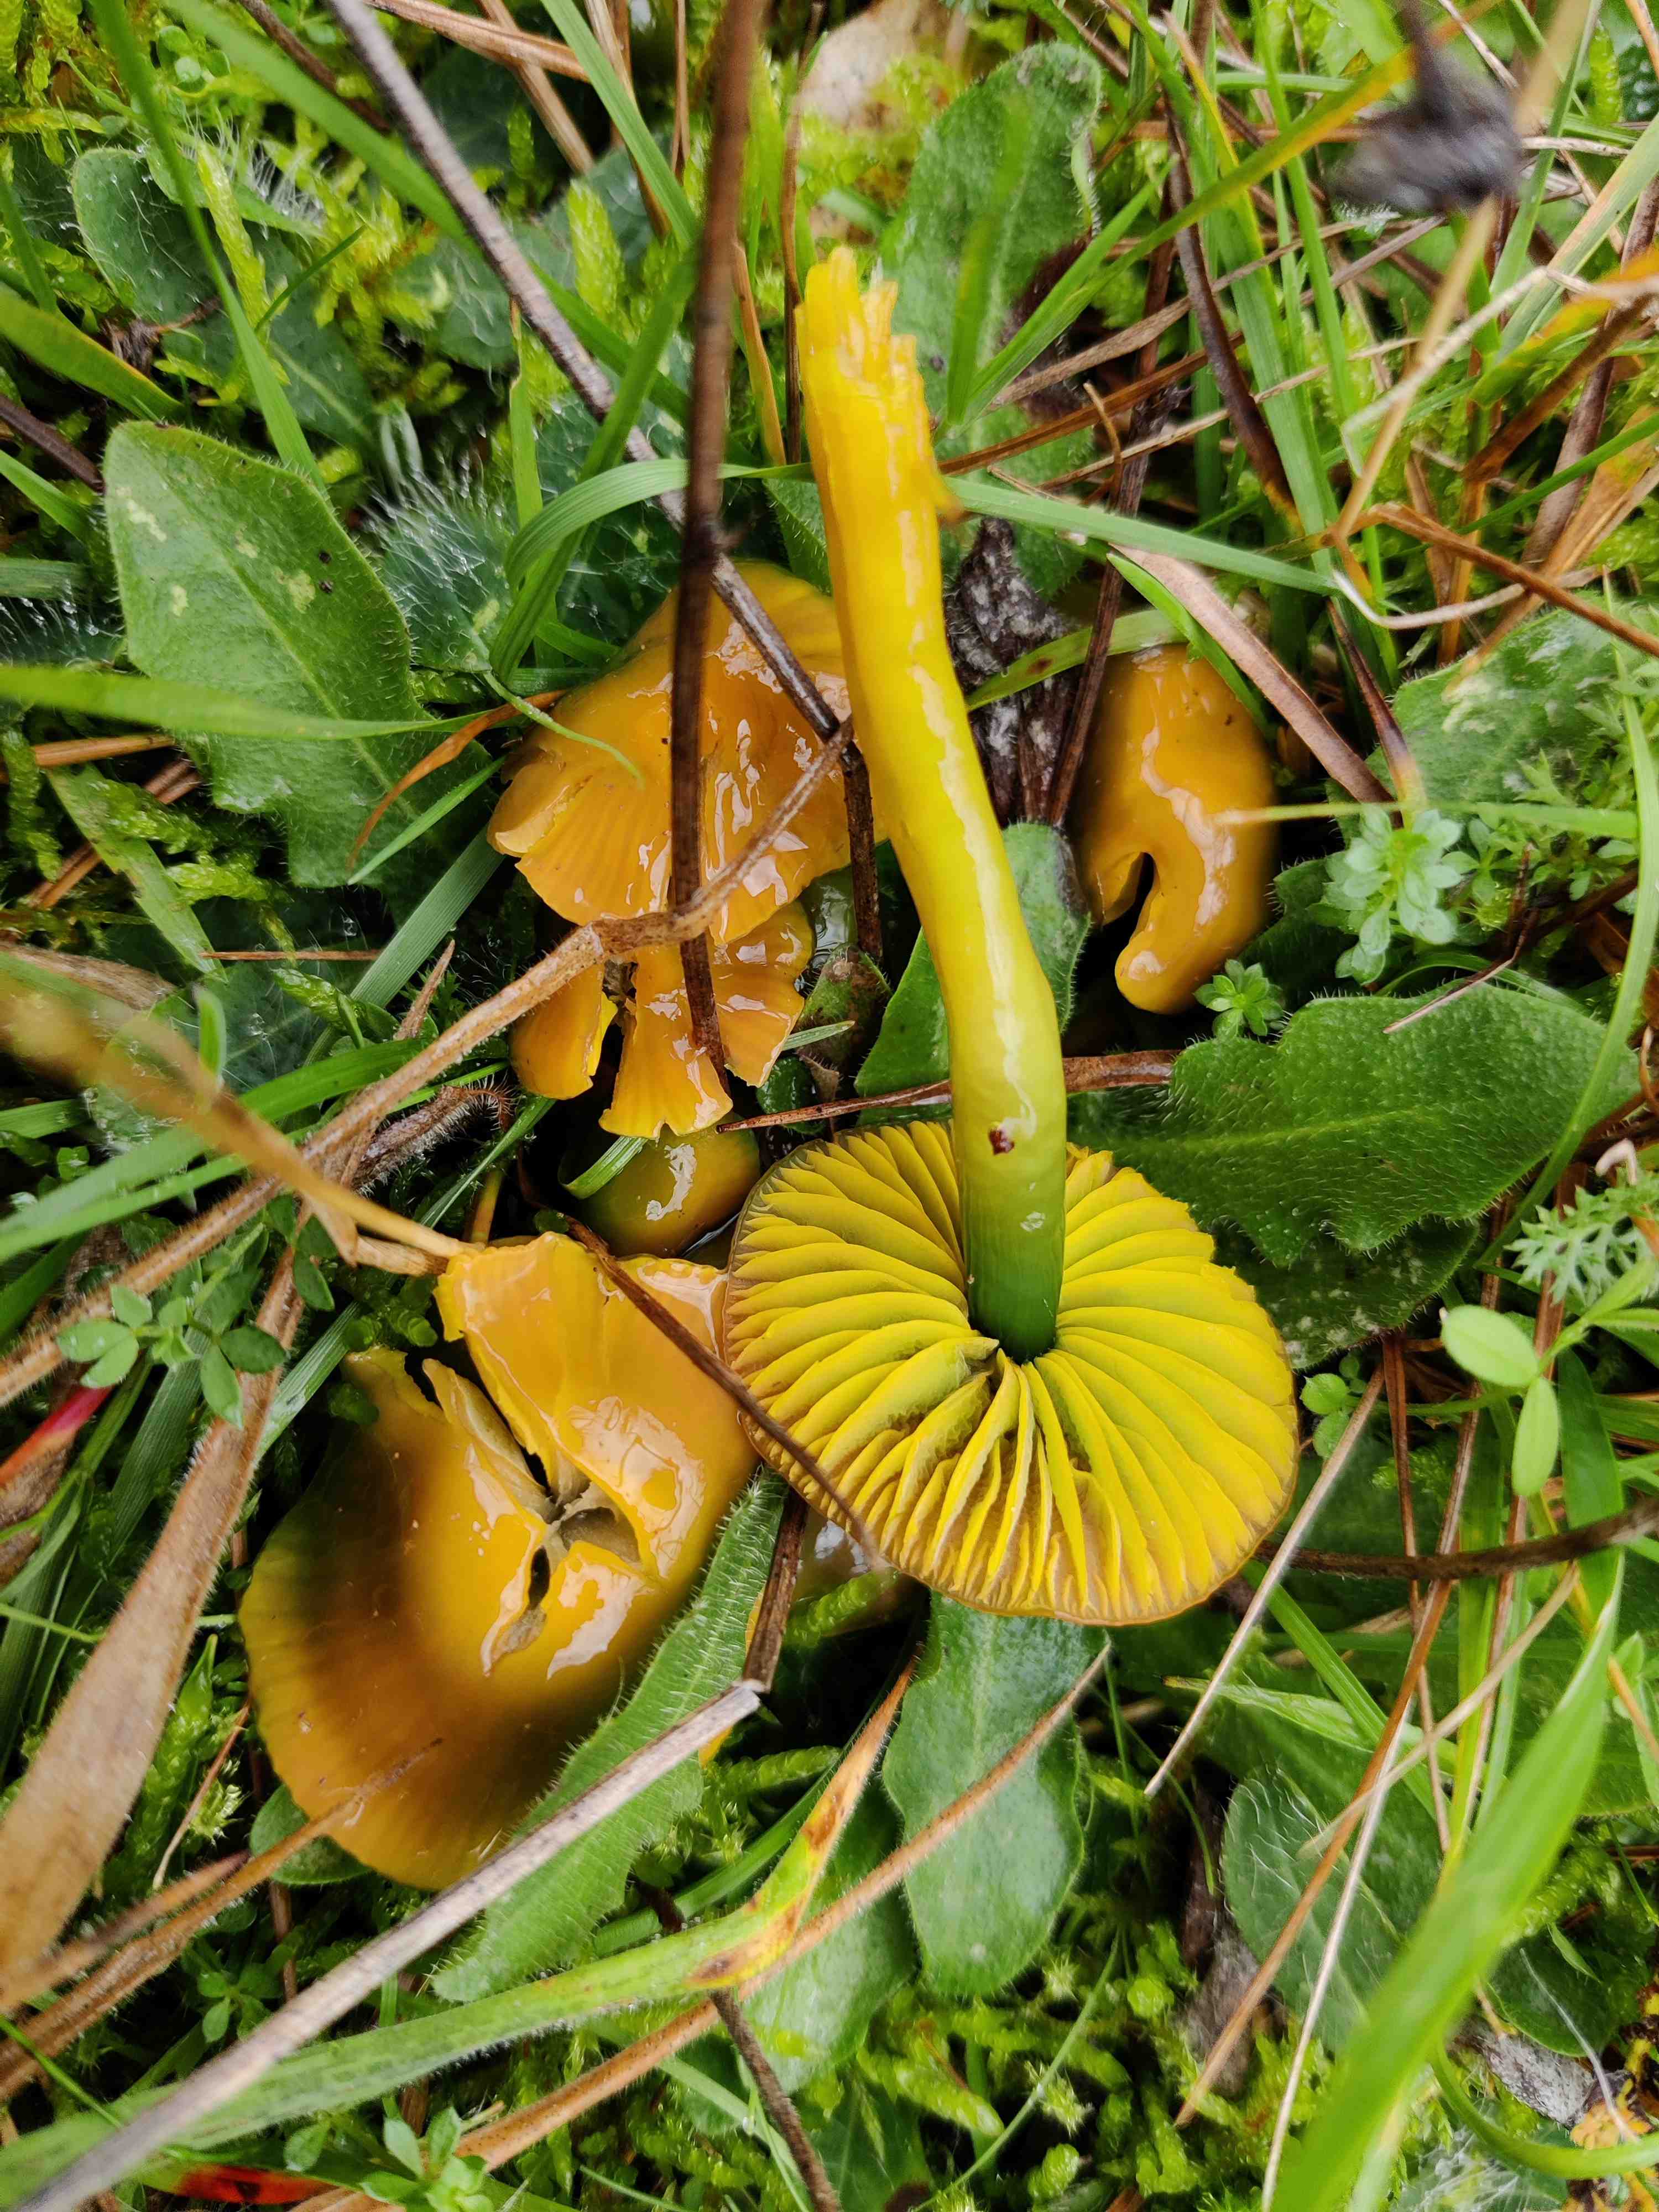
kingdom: Fungi
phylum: Basidiomycota
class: Agaricomycetes
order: Agaricales
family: Hygrophoraceae
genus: Gliophorus
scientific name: Gliophorus psittacinus
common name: papegøje-vokshat
